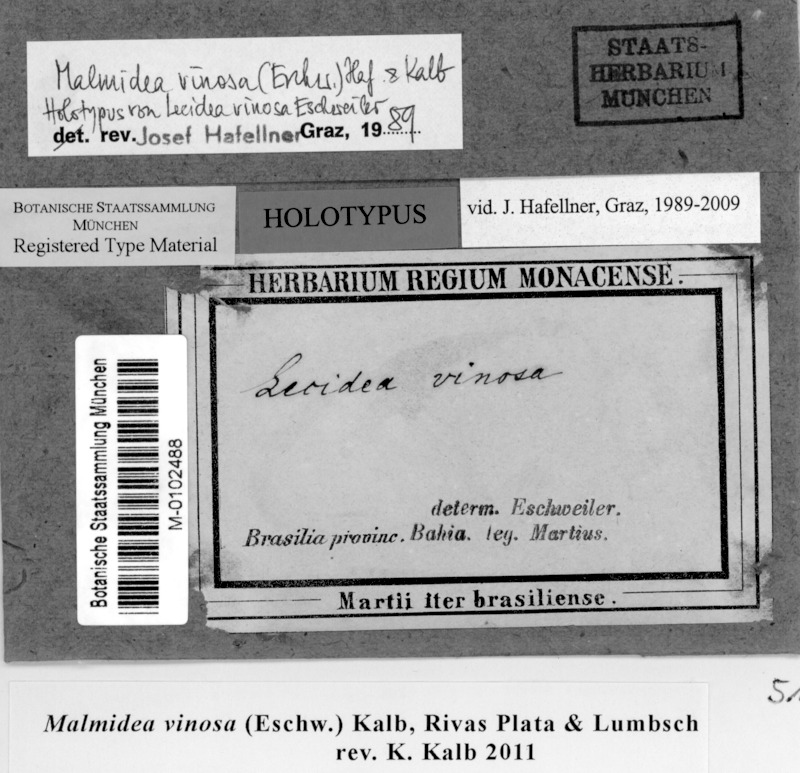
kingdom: Fungi
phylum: Ascomycota
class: Lecanoromycetes
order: Lecanorales
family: Malmideaceae
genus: Malmidea
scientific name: Malmidea vinosa
